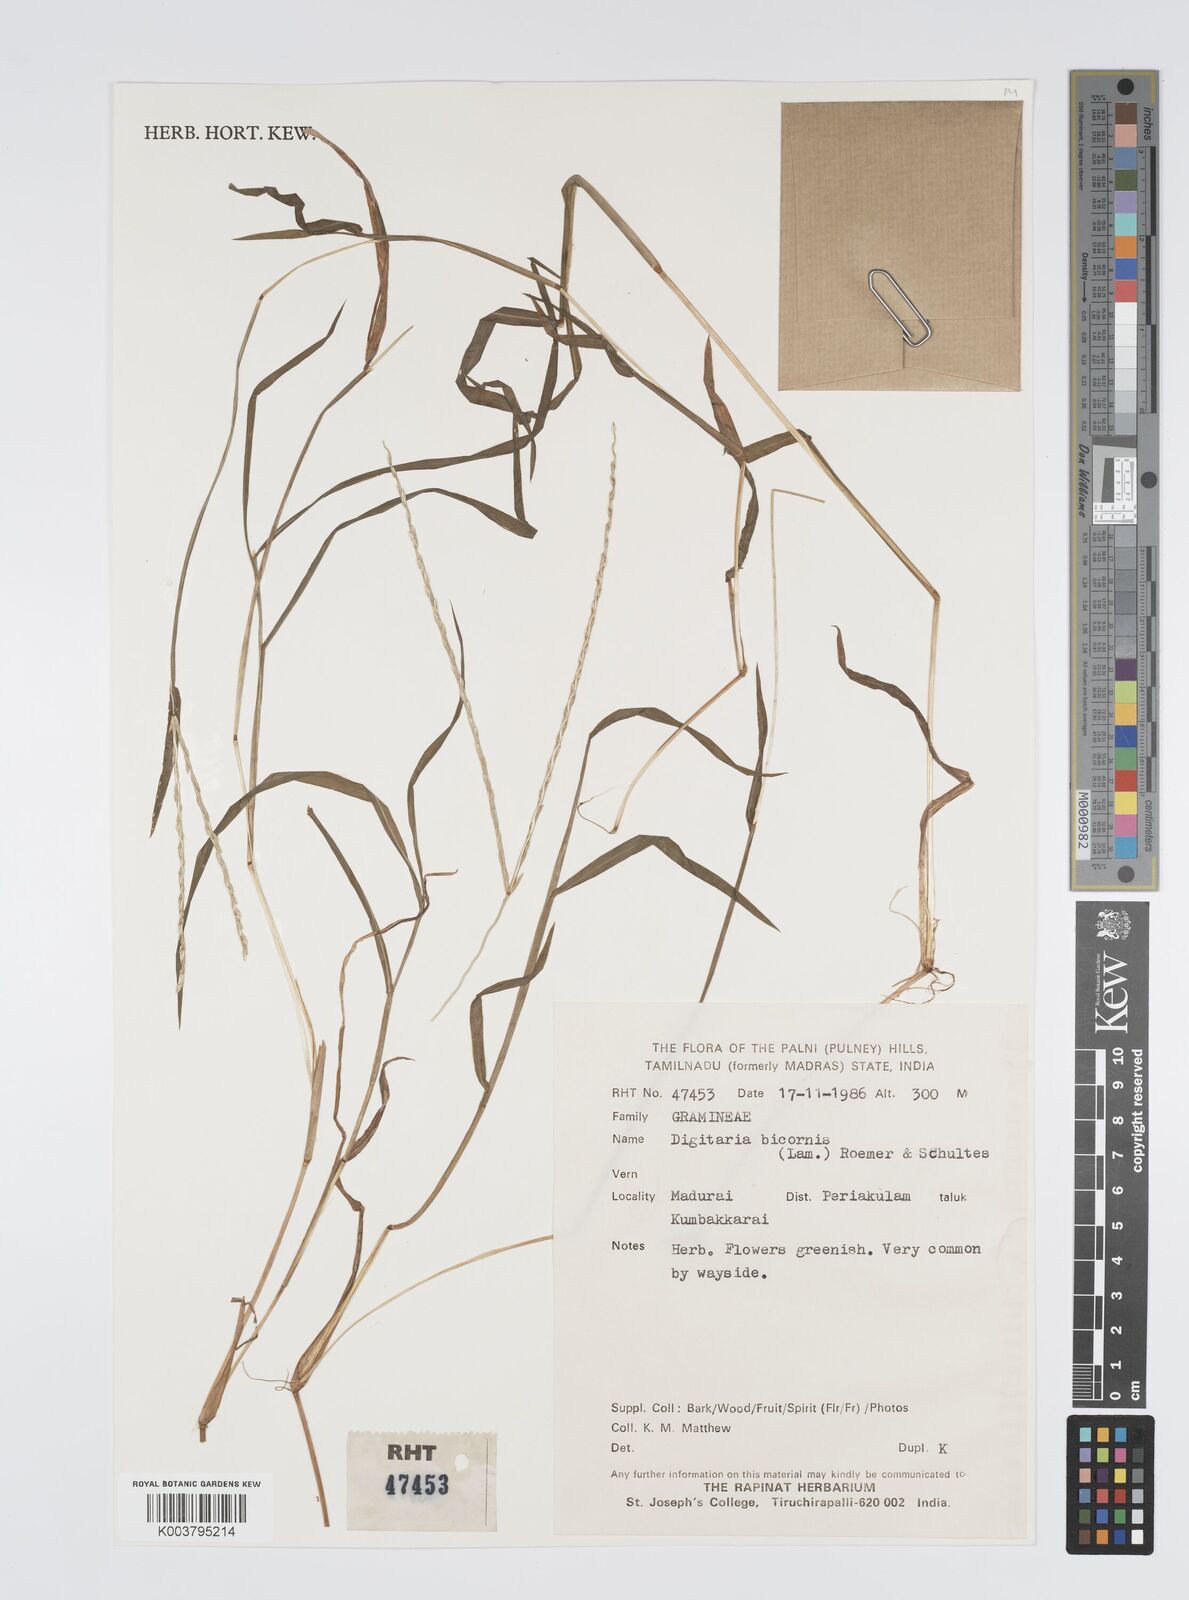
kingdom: Plantae
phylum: Tracheophyta
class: Liliopsida
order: Poales
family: Poaceae
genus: Digitaria
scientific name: Digitaria ciliaris
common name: Tropical finger-grass
